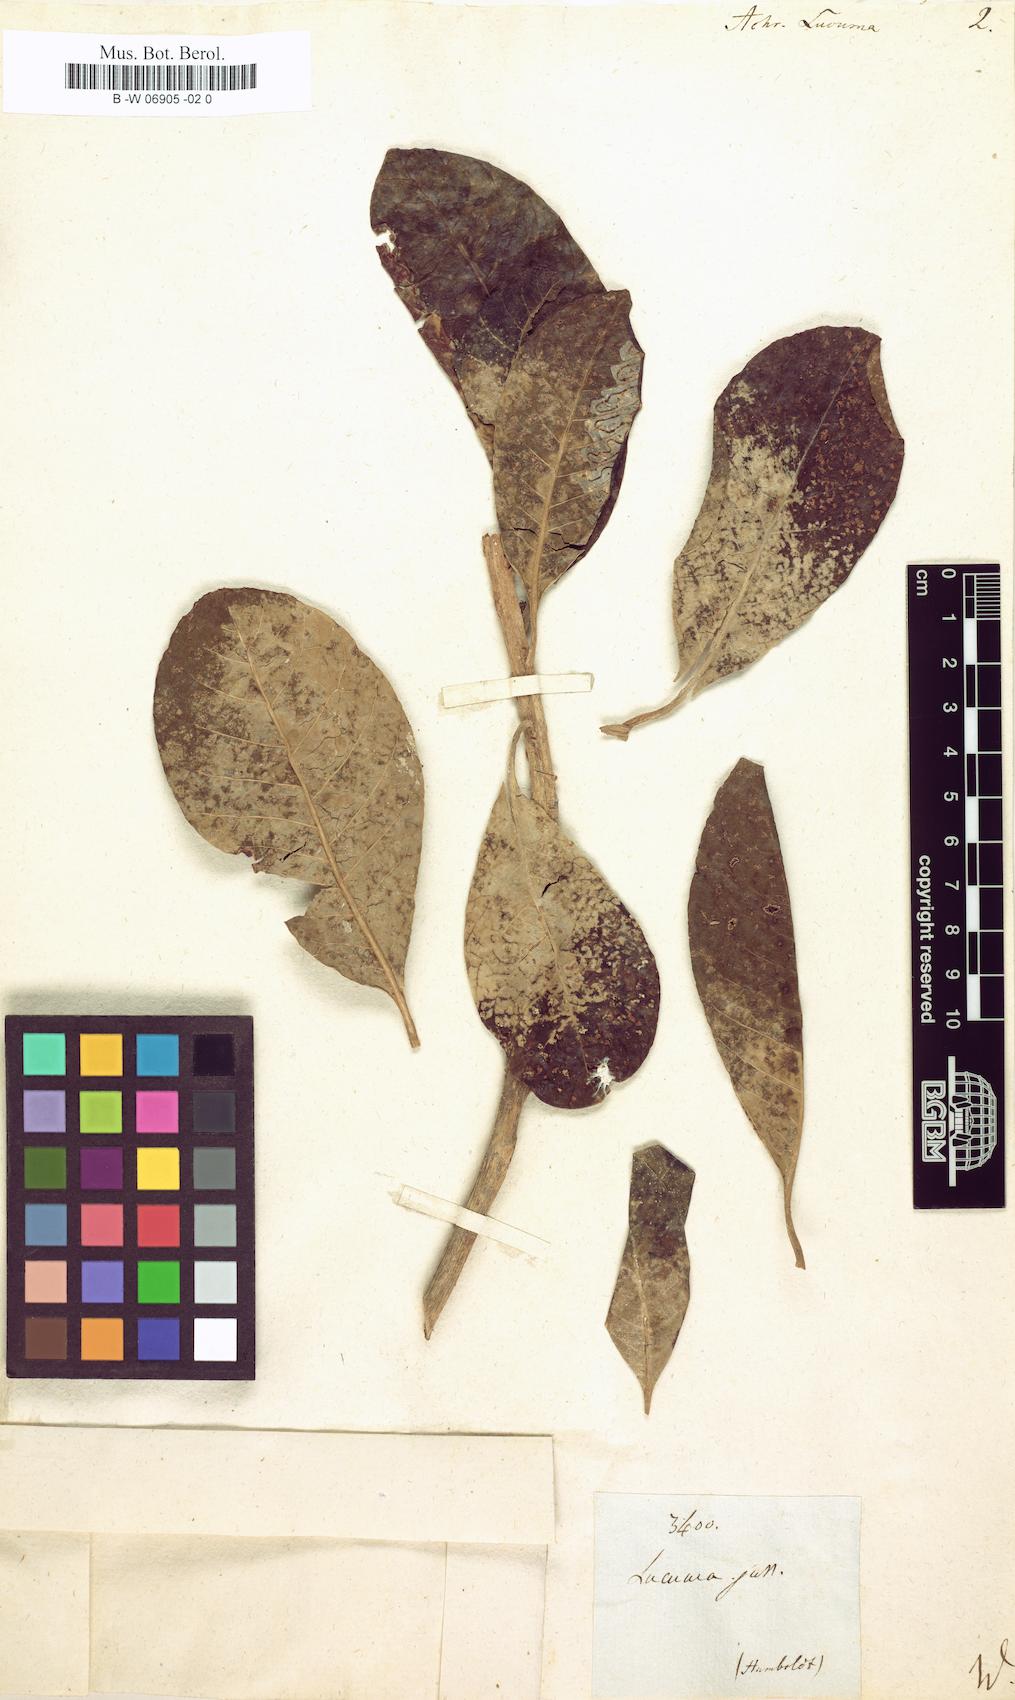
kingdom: Plantae
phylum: Tracheophyta
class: Magnoliopsida
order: Ericales
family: Sapotaceae
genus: Pouteria
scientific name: Pouteria lucuma
